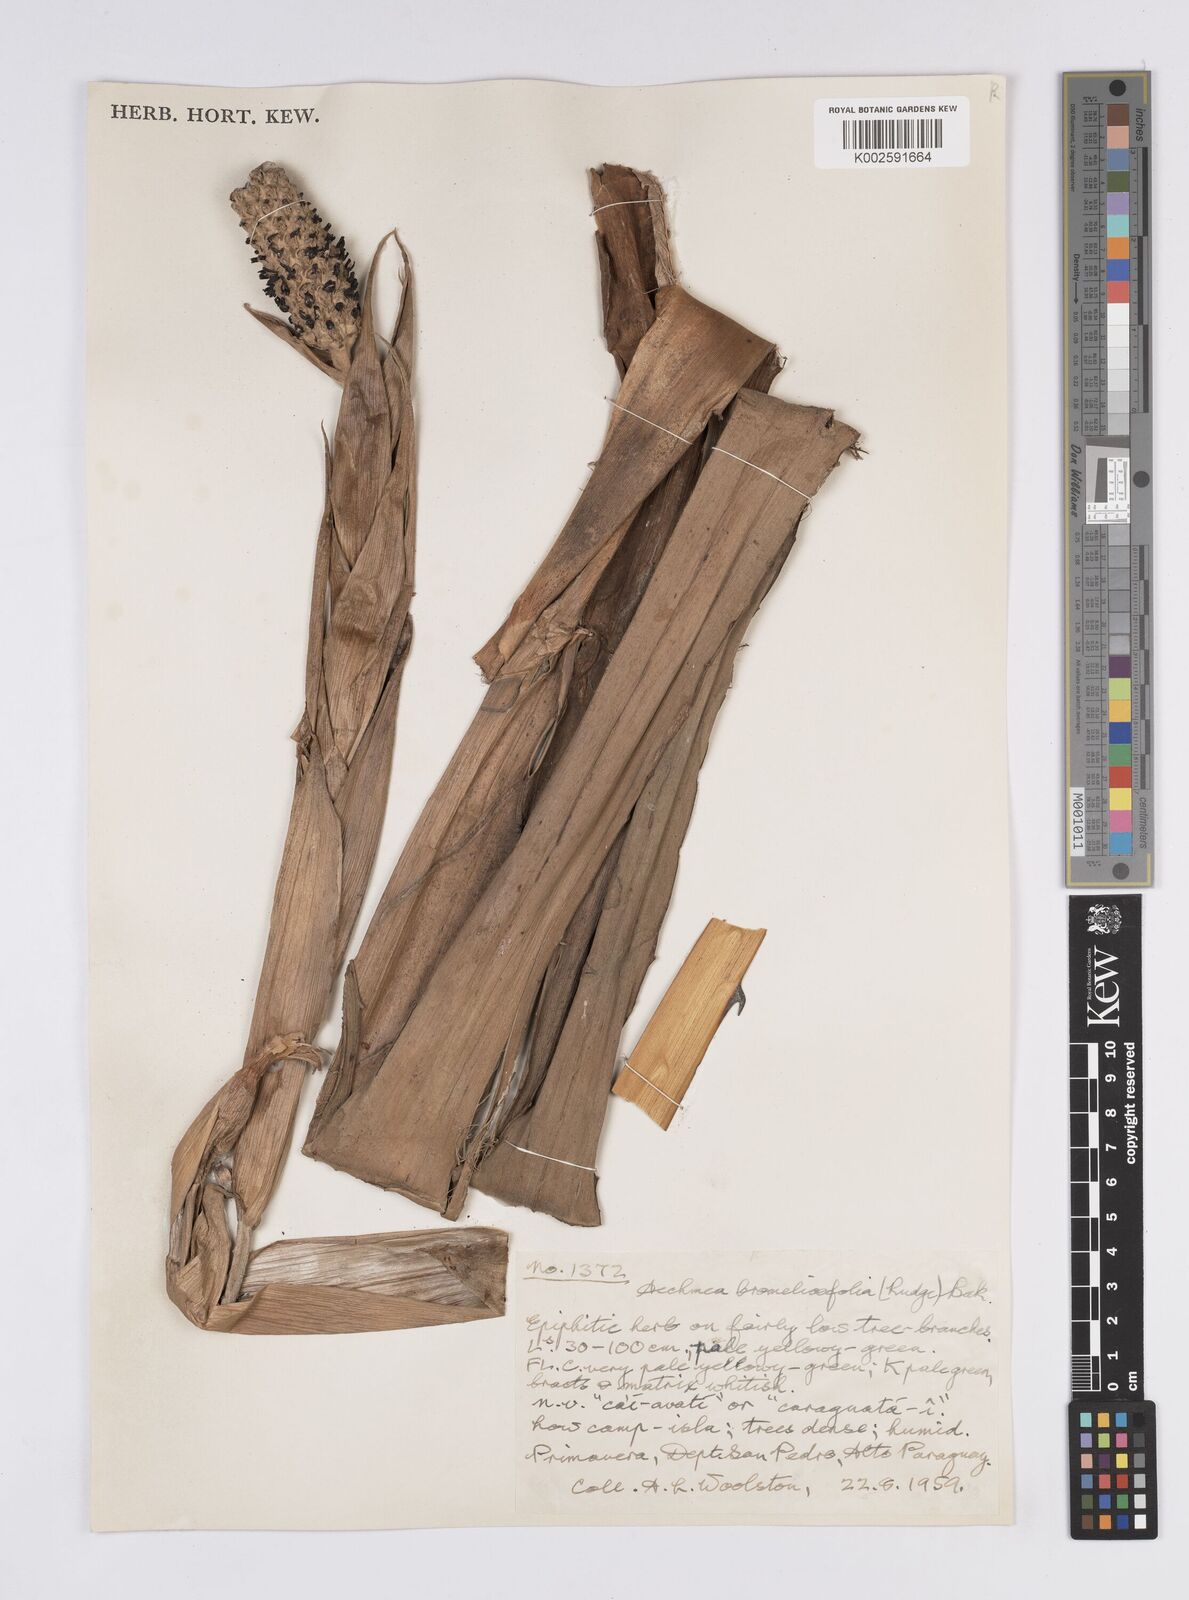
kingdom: Plantae
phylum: Tracheophyta
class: Liliopsida
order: Poales
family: Bromeliaceae
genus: Aechmea
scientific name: Aechmea bromeliifolia
